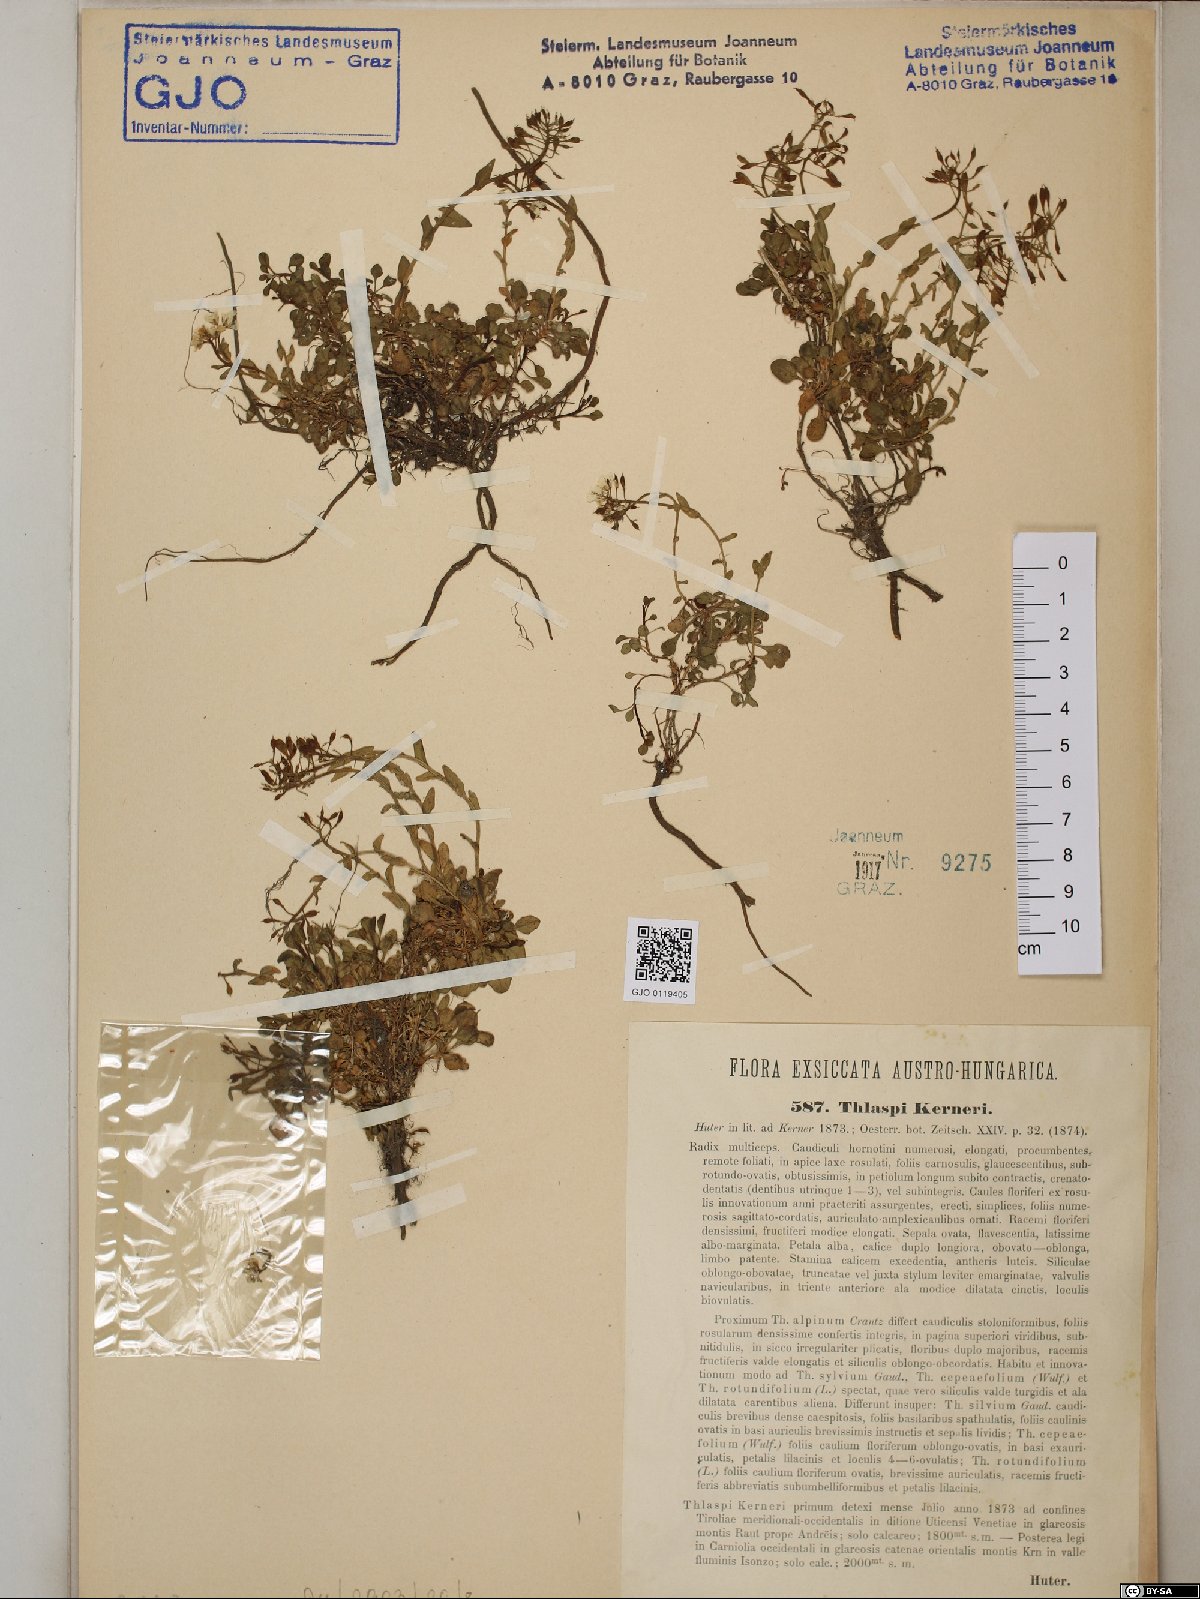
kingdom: Plantae
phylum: Tracheophyta
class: Magnoliopsida
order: Brassicales
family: Brassicaceae
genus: Noccaea
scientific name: Noccaea minima
